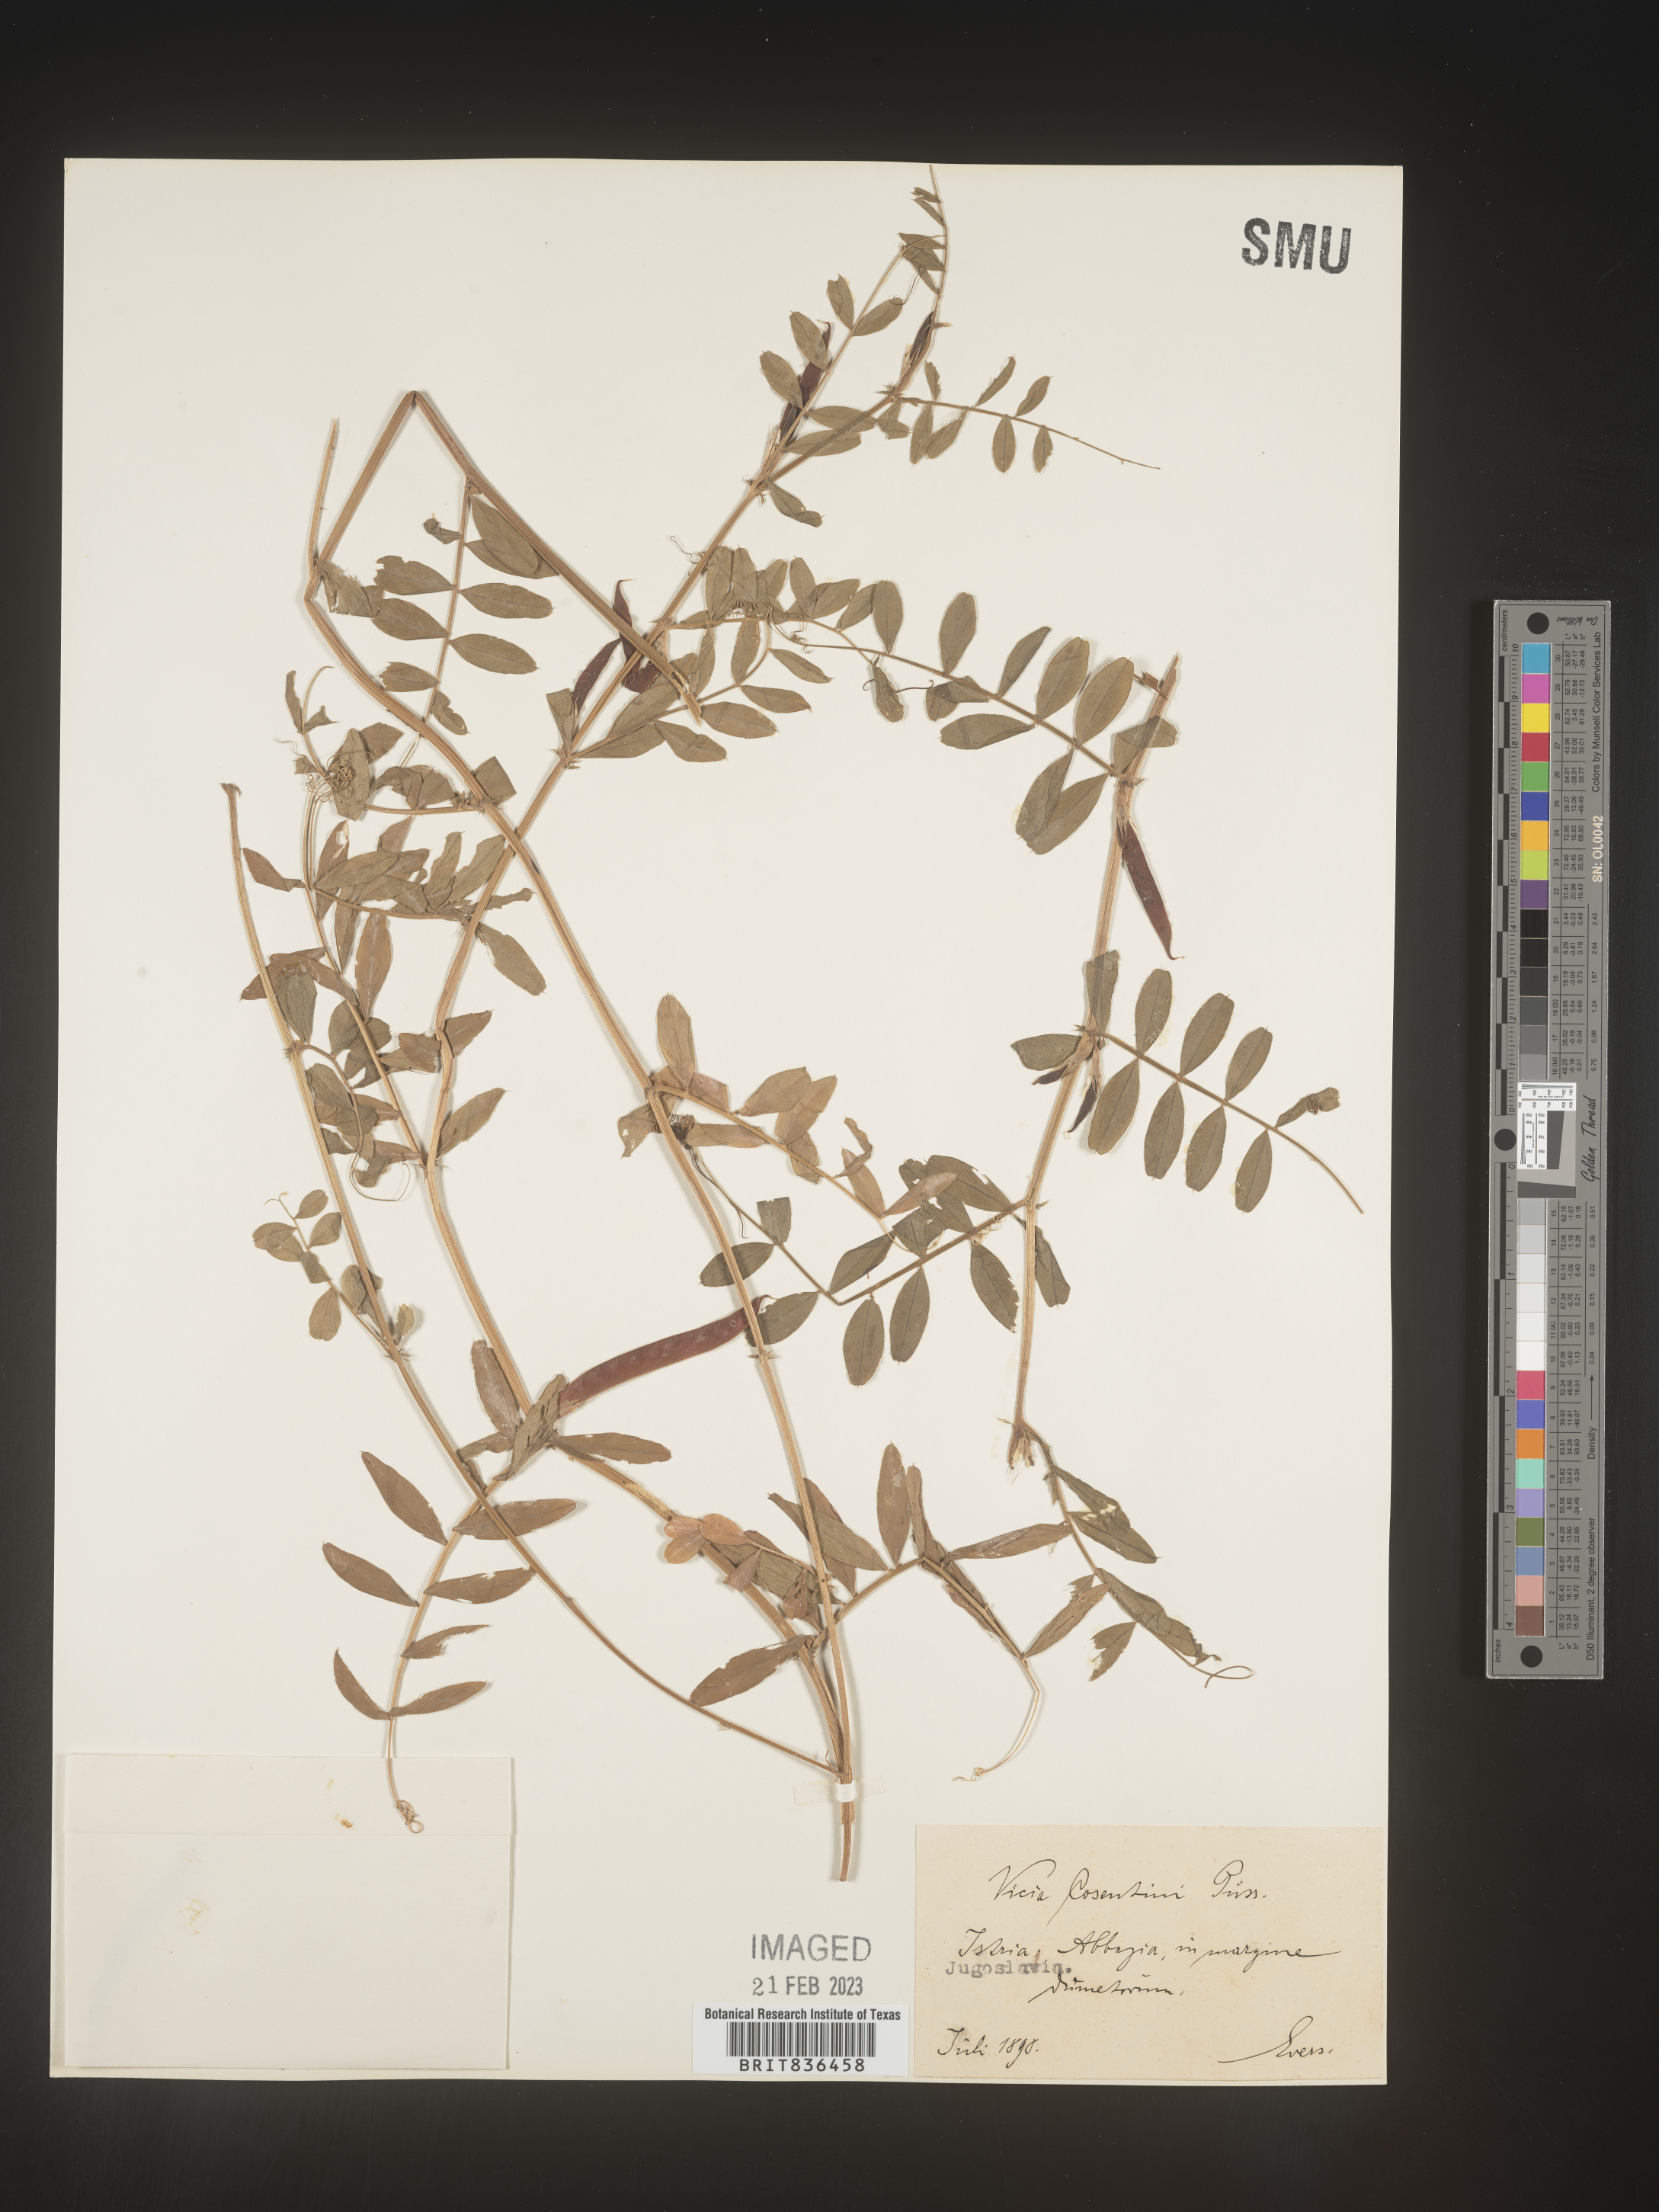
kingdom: Plantae
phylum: Tracheophyta
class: Magnoliopsida
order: Fabales
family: Fabaceae
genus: Vicia
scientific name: Vicia
